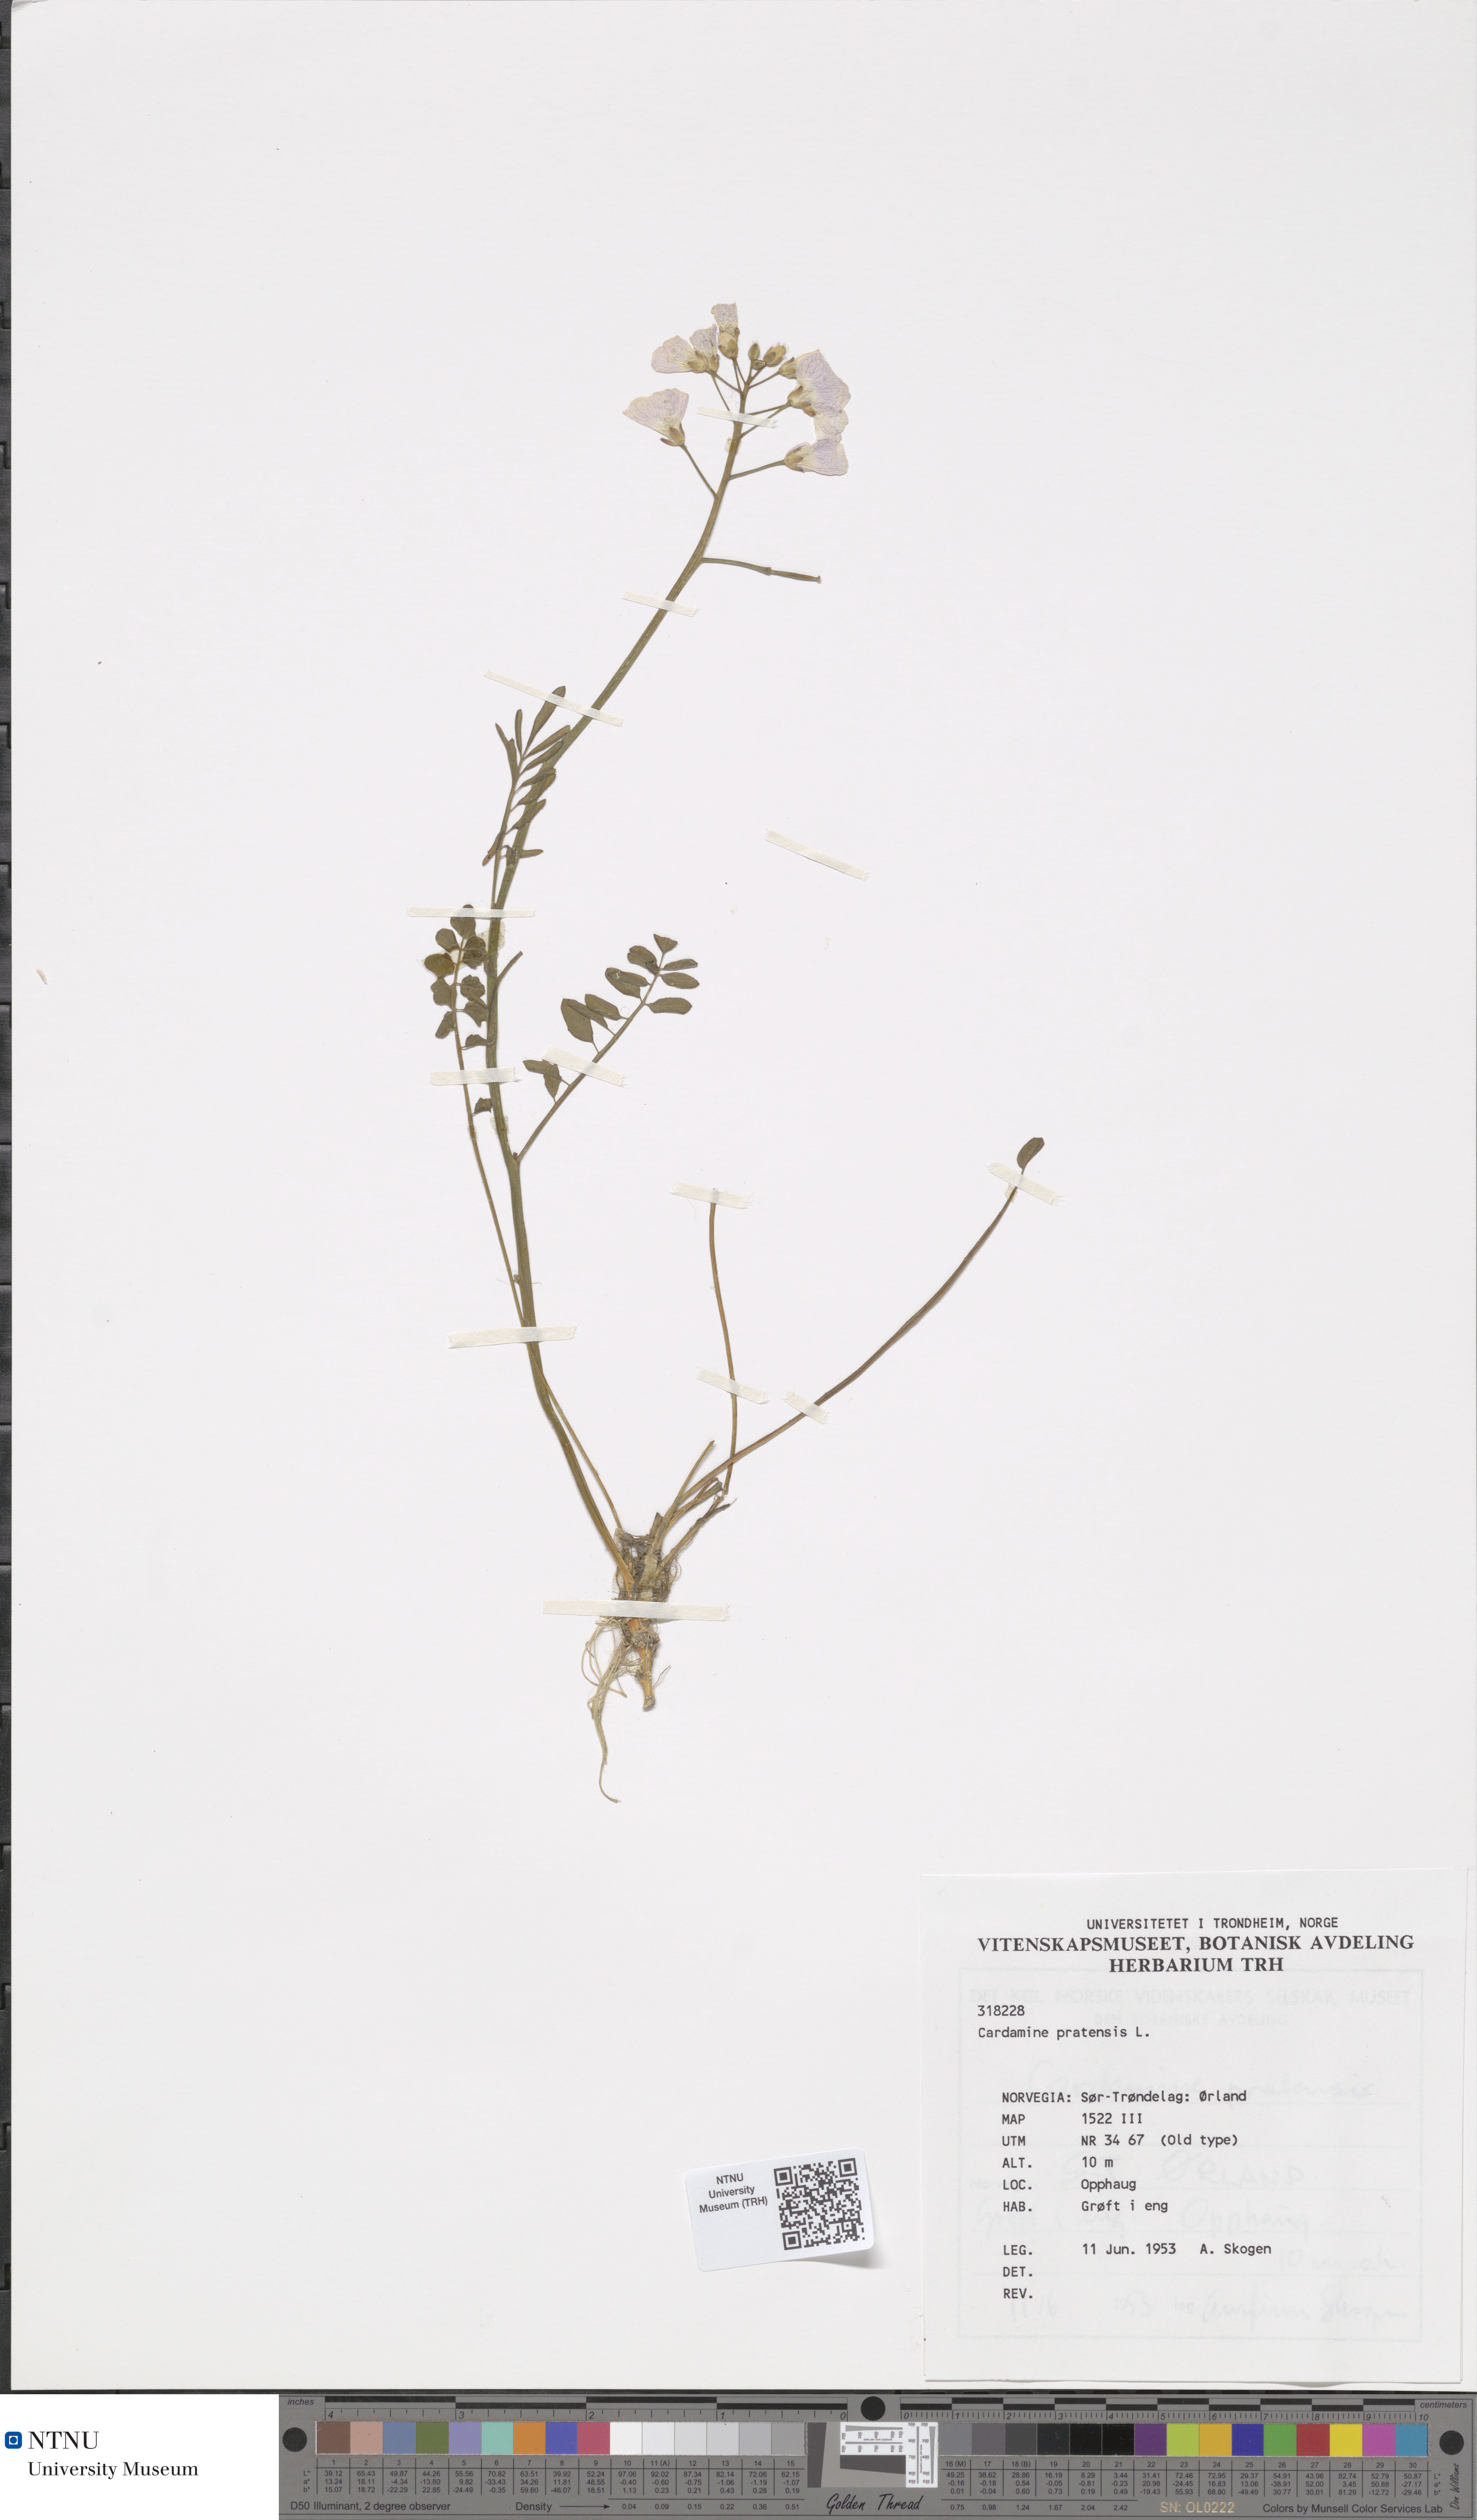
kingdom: Plantae
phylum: Tracheophyta
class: Magnoliopsida
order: Brassicales
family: Brassicaceae
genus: Cardamine
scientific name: Cardamine pratensis
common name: Cuckoo flower
